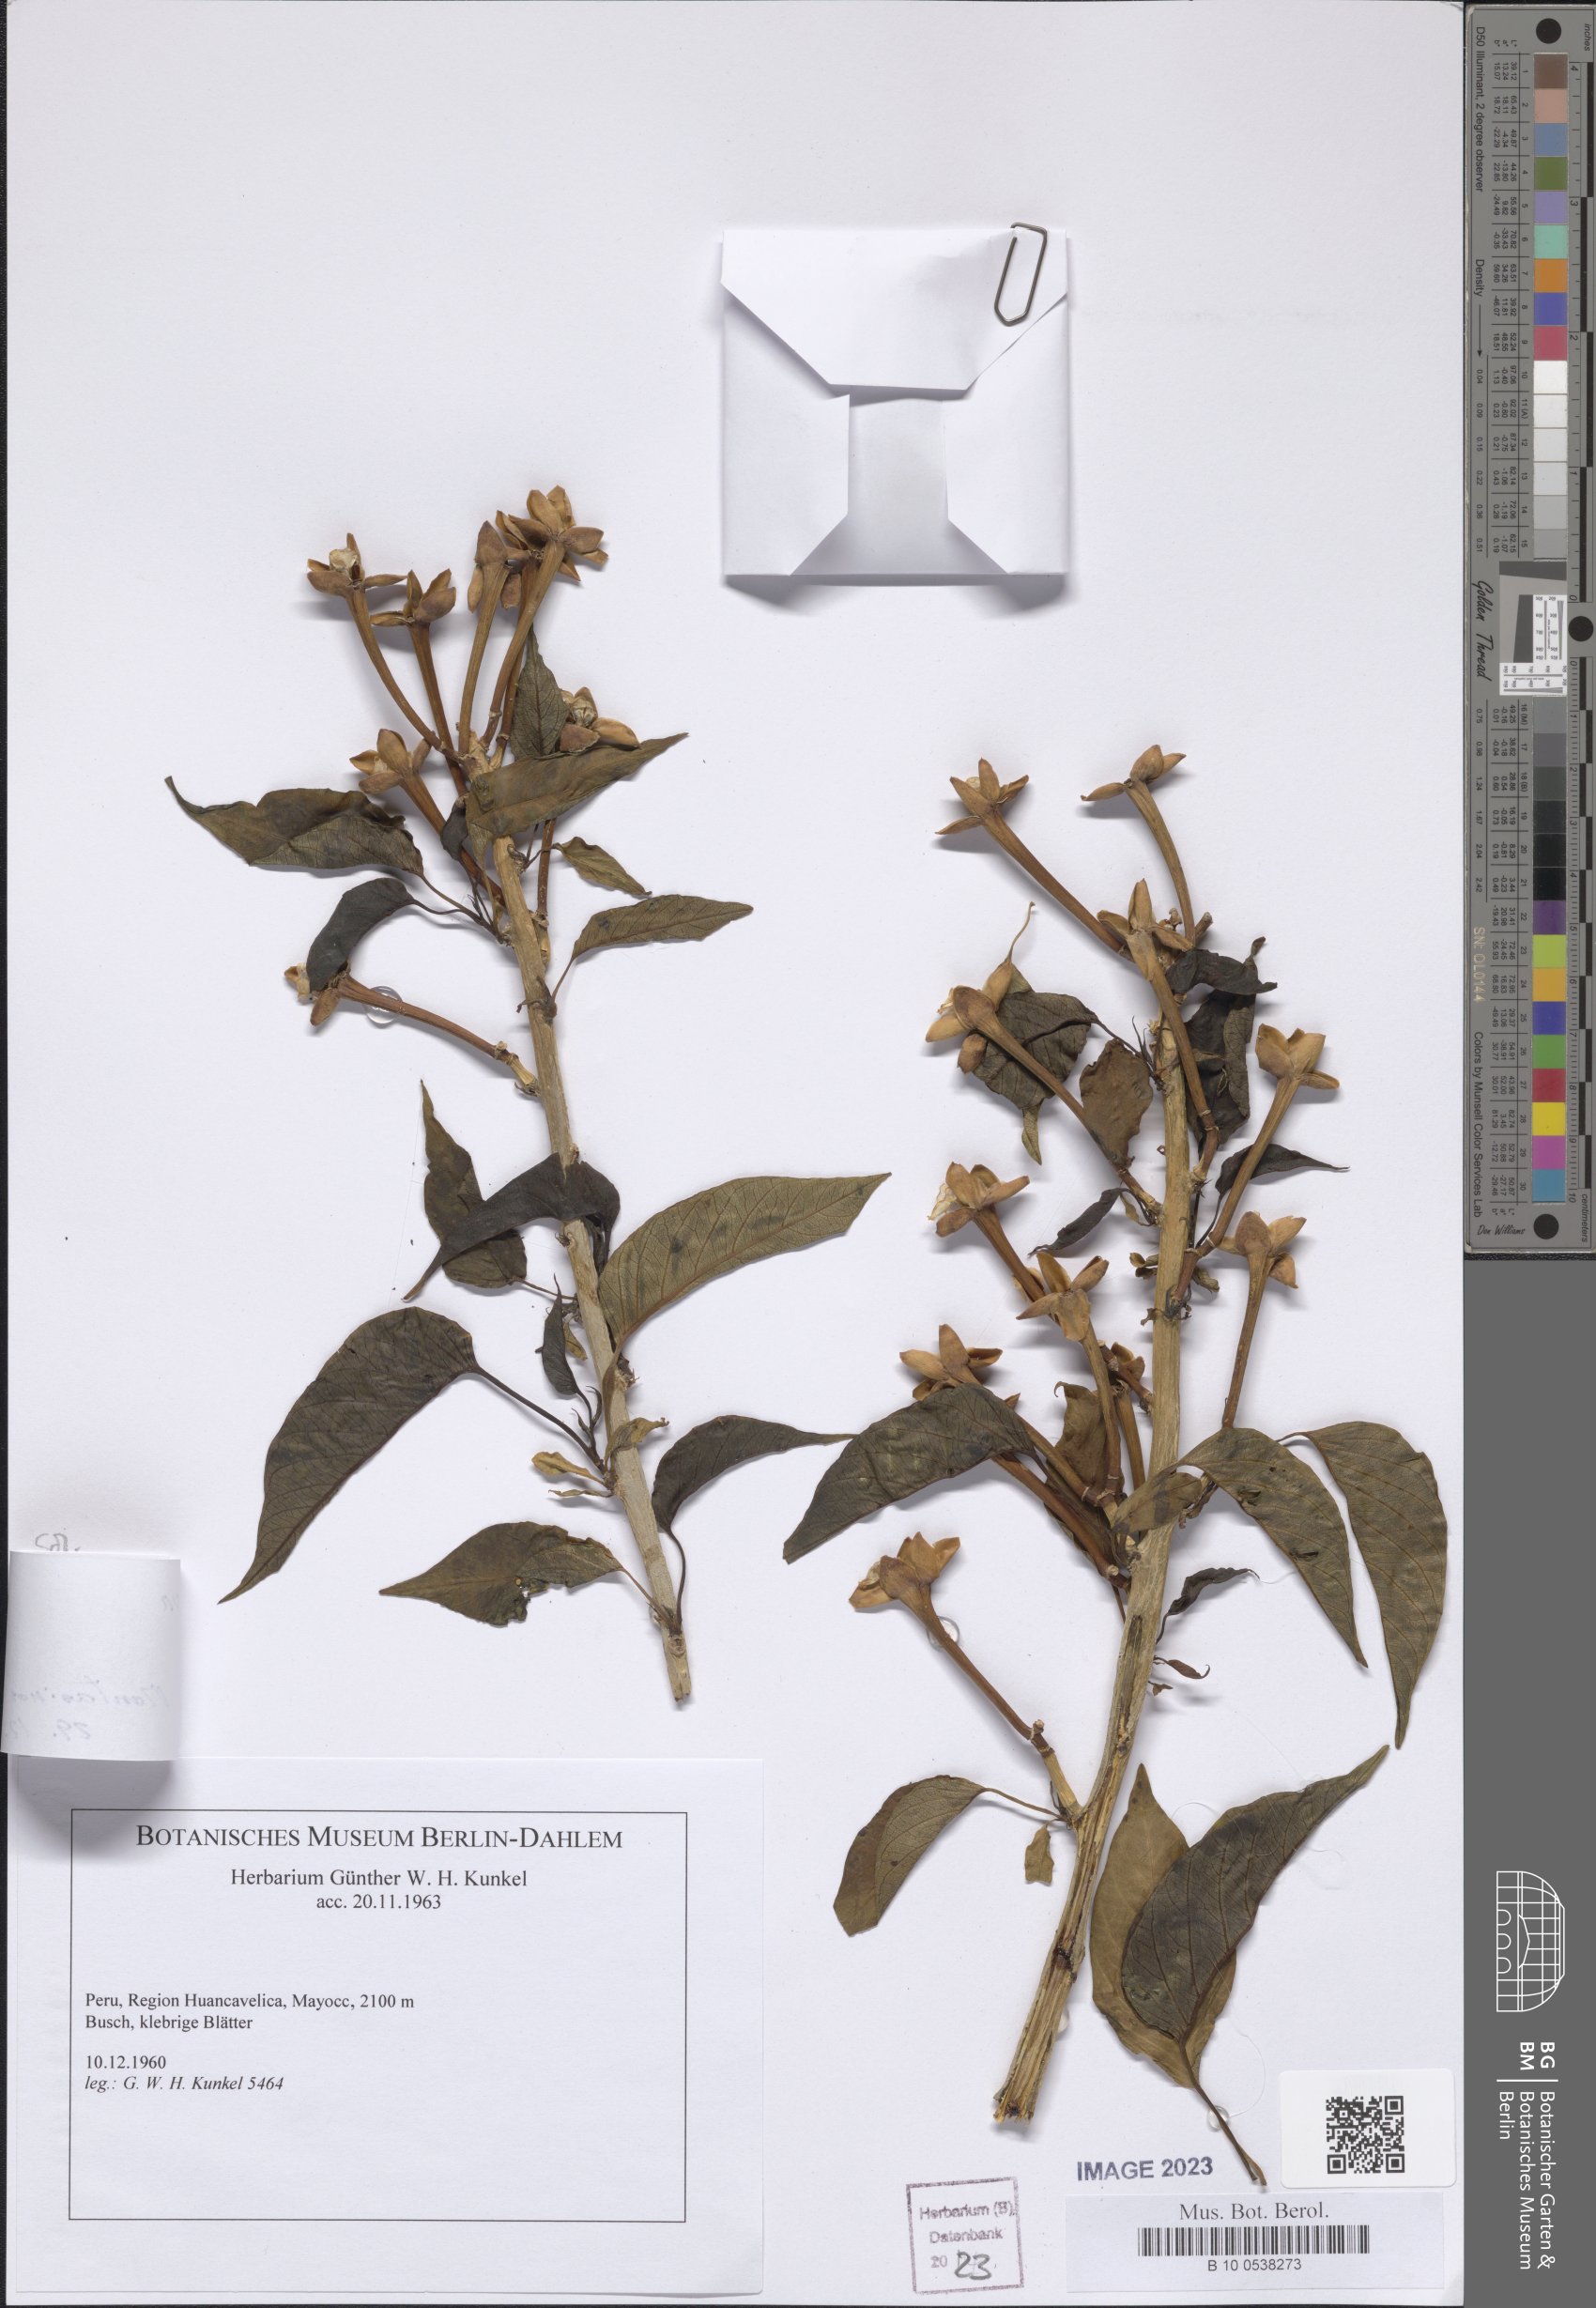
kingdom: Plantae
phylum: Tracheophyta
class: Magnoliopsida
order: Solanales
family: Solanaceae
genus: Cestrum
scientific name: Cestrum
